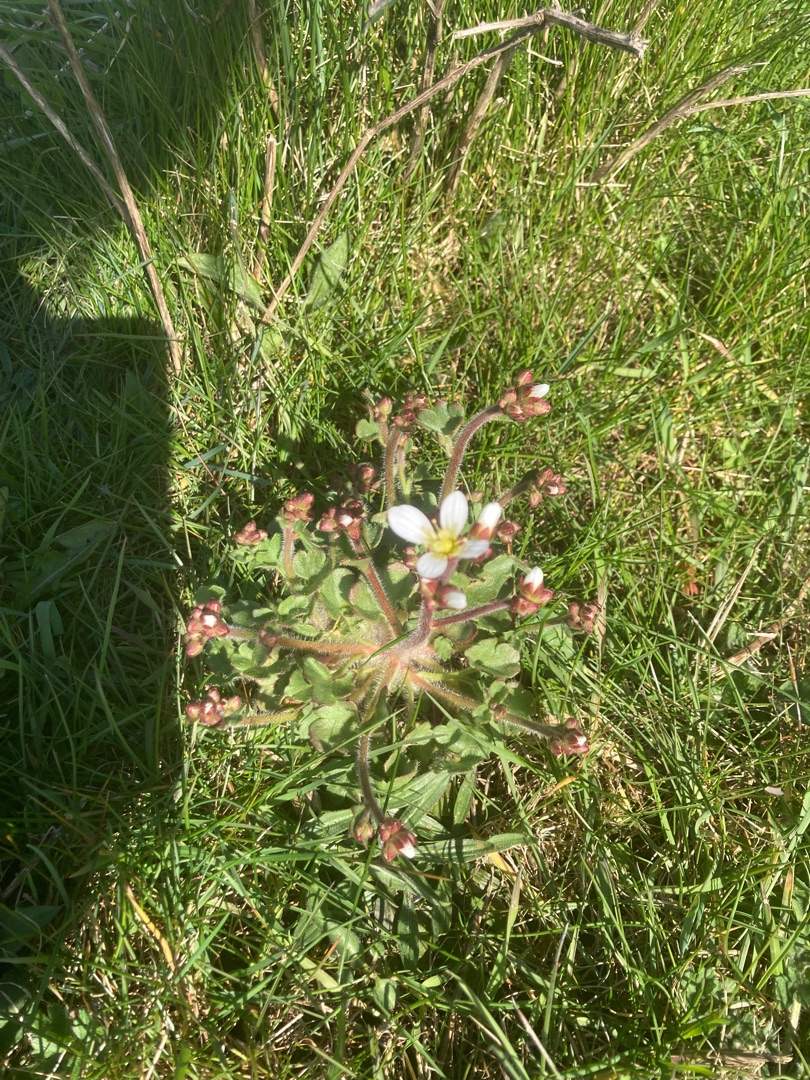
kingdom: Plantae
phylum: Tracheophyta
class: Magnoliopsida
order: Saxifragales
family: Saxifragaceae
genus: Saxifraga
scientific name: Saxifraga granulata
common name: Kornet stenbræk
